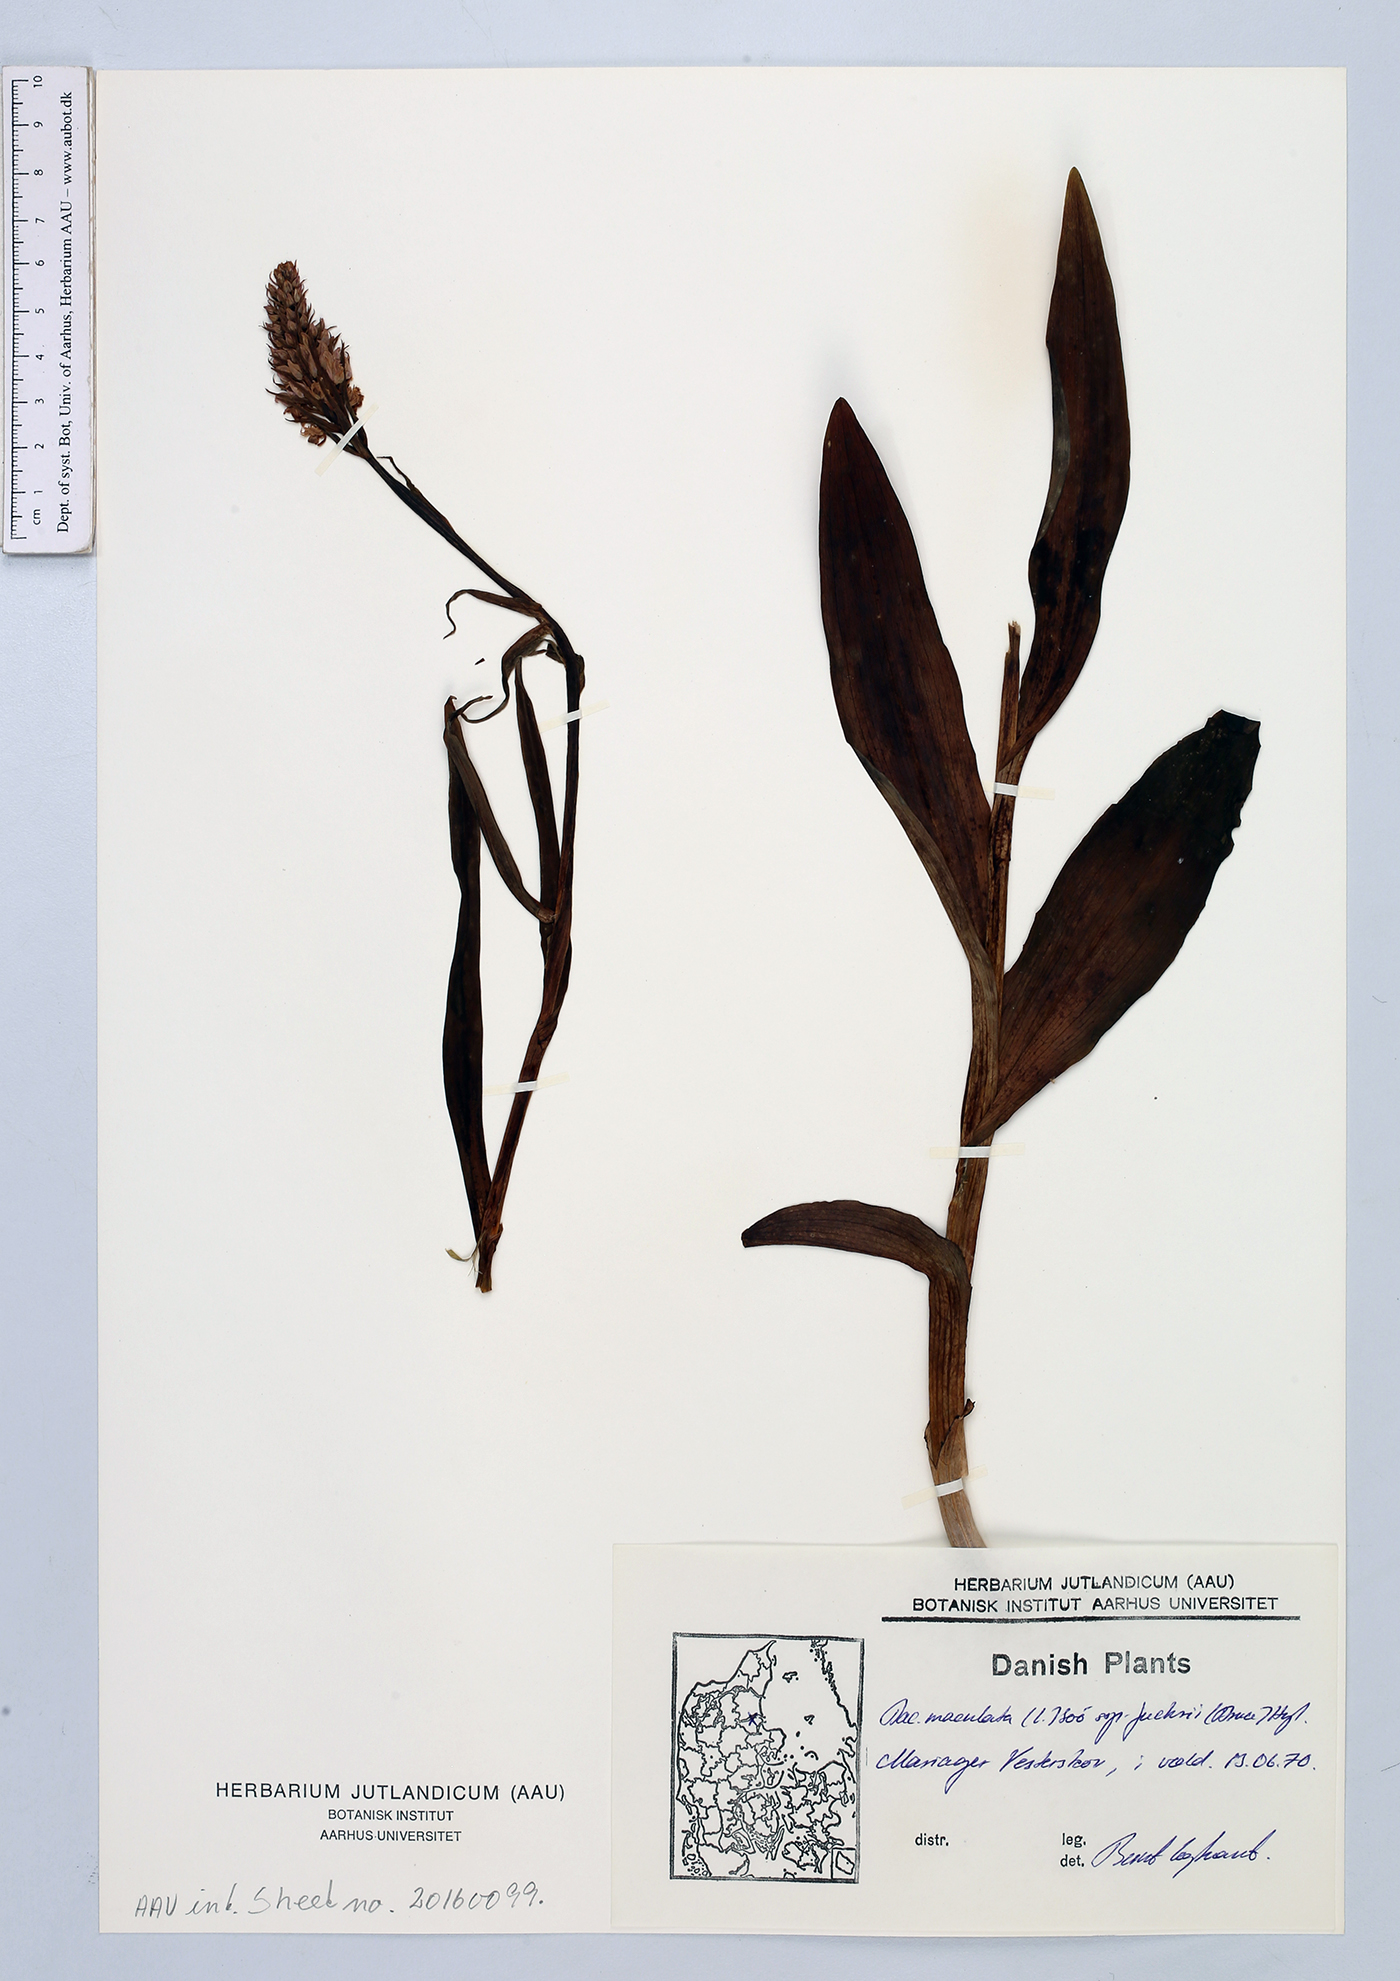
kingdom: Plantae
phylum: Tracheophyta
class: Liliopsida
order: Asparagales
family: Orchidaceae
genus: Dactylorhiza
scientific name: Dactylorhiza maculata
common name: Heath spotted-orchid
